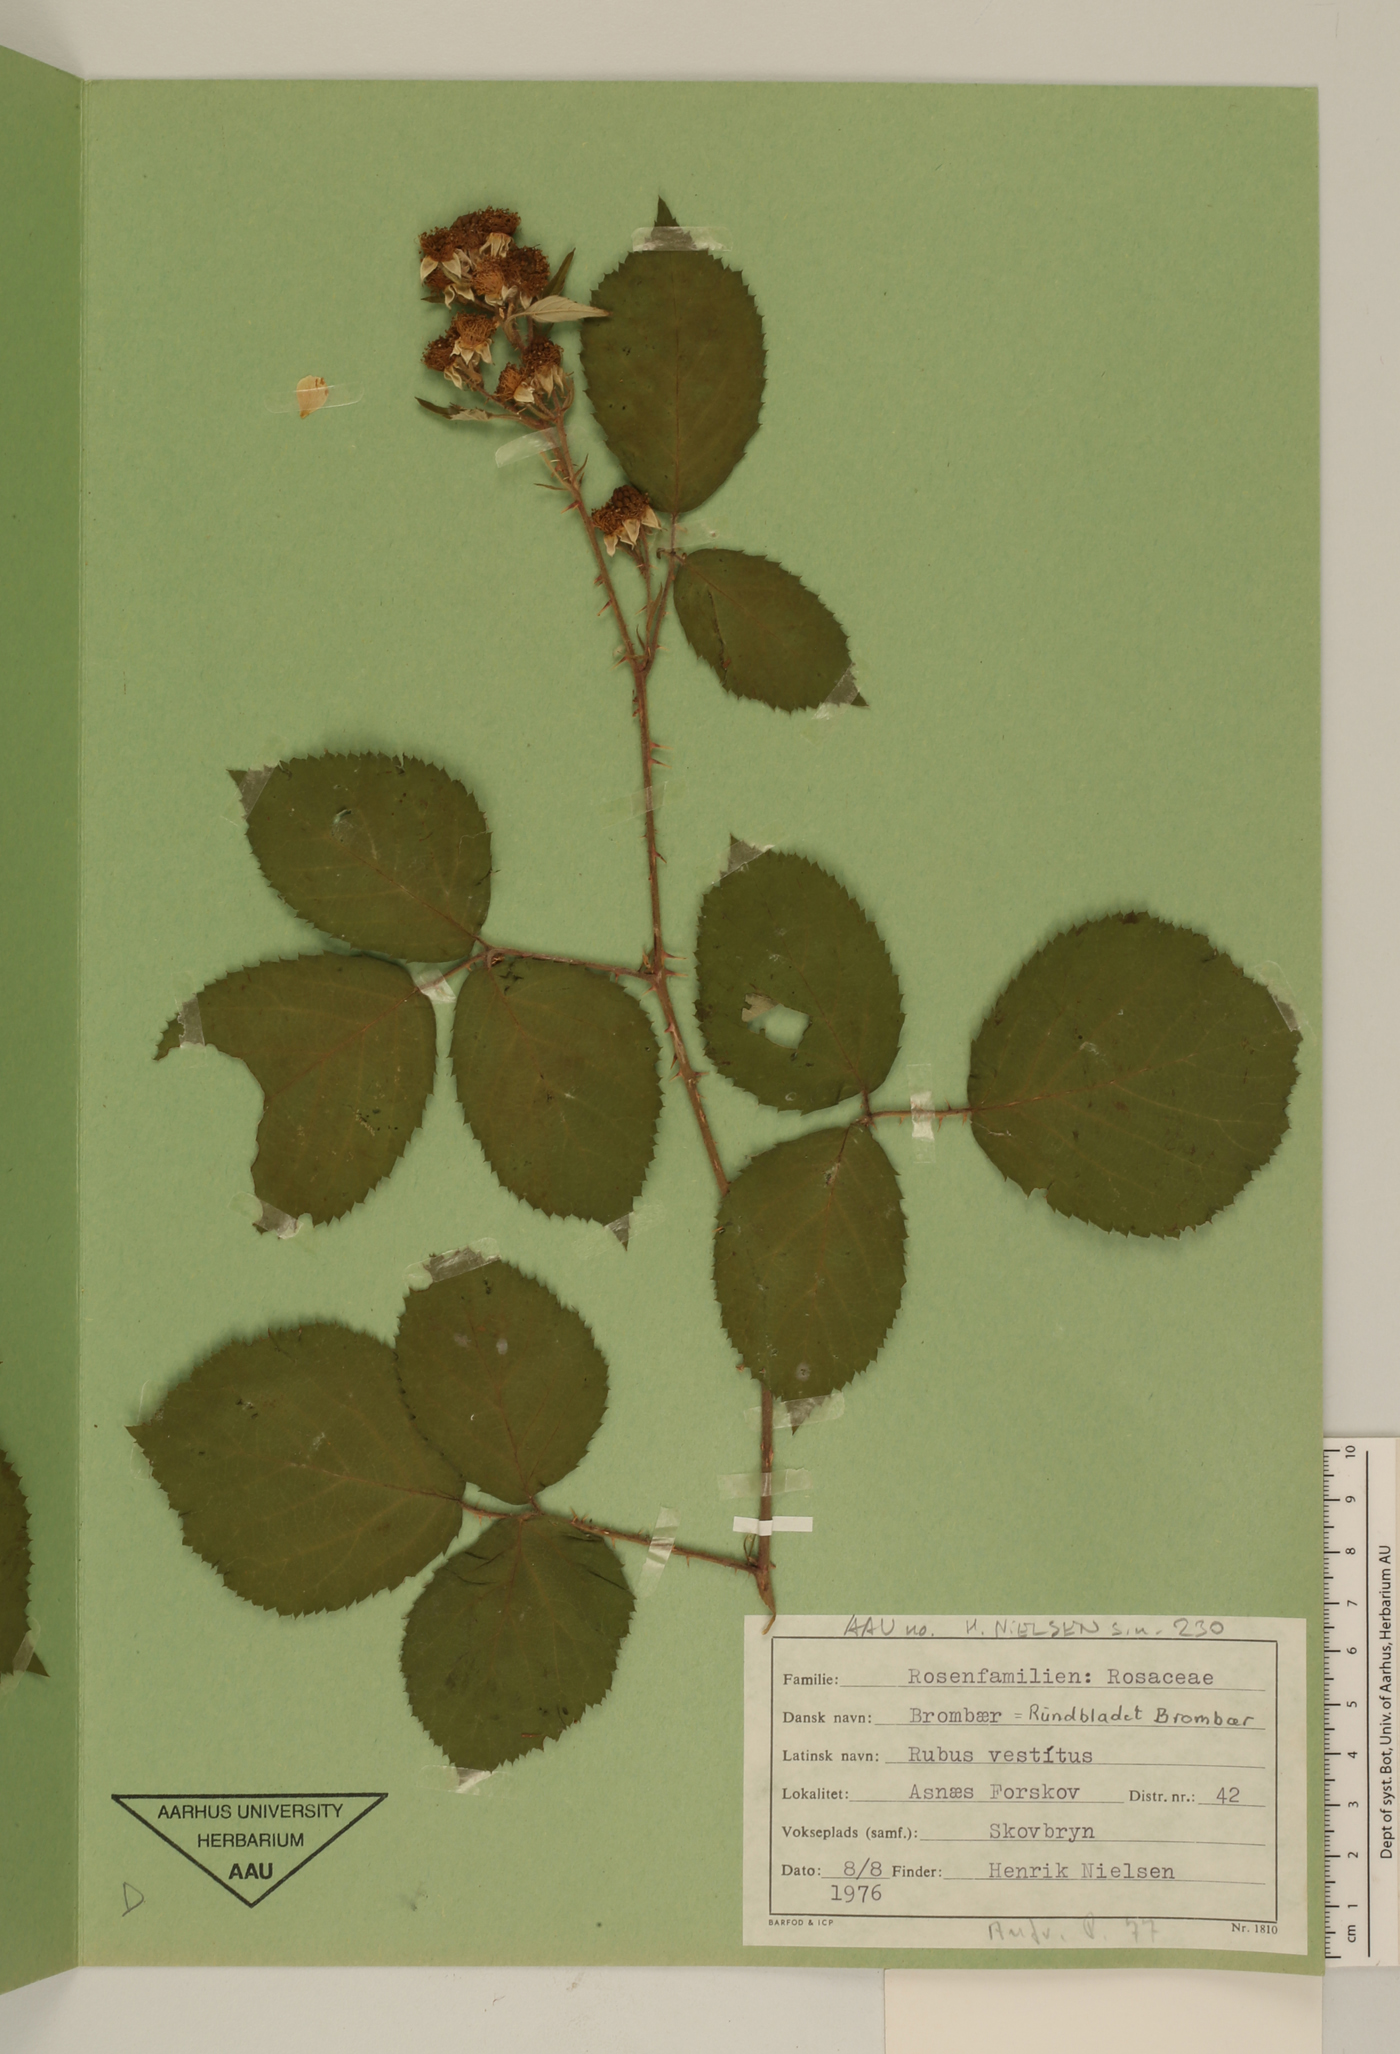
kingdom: Plantae
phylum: Tracheophyta
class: Magnoliopsida
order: Rosales
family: Rosaceae
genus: Rubus
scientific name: Rubus vestitus
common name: European blackberry
